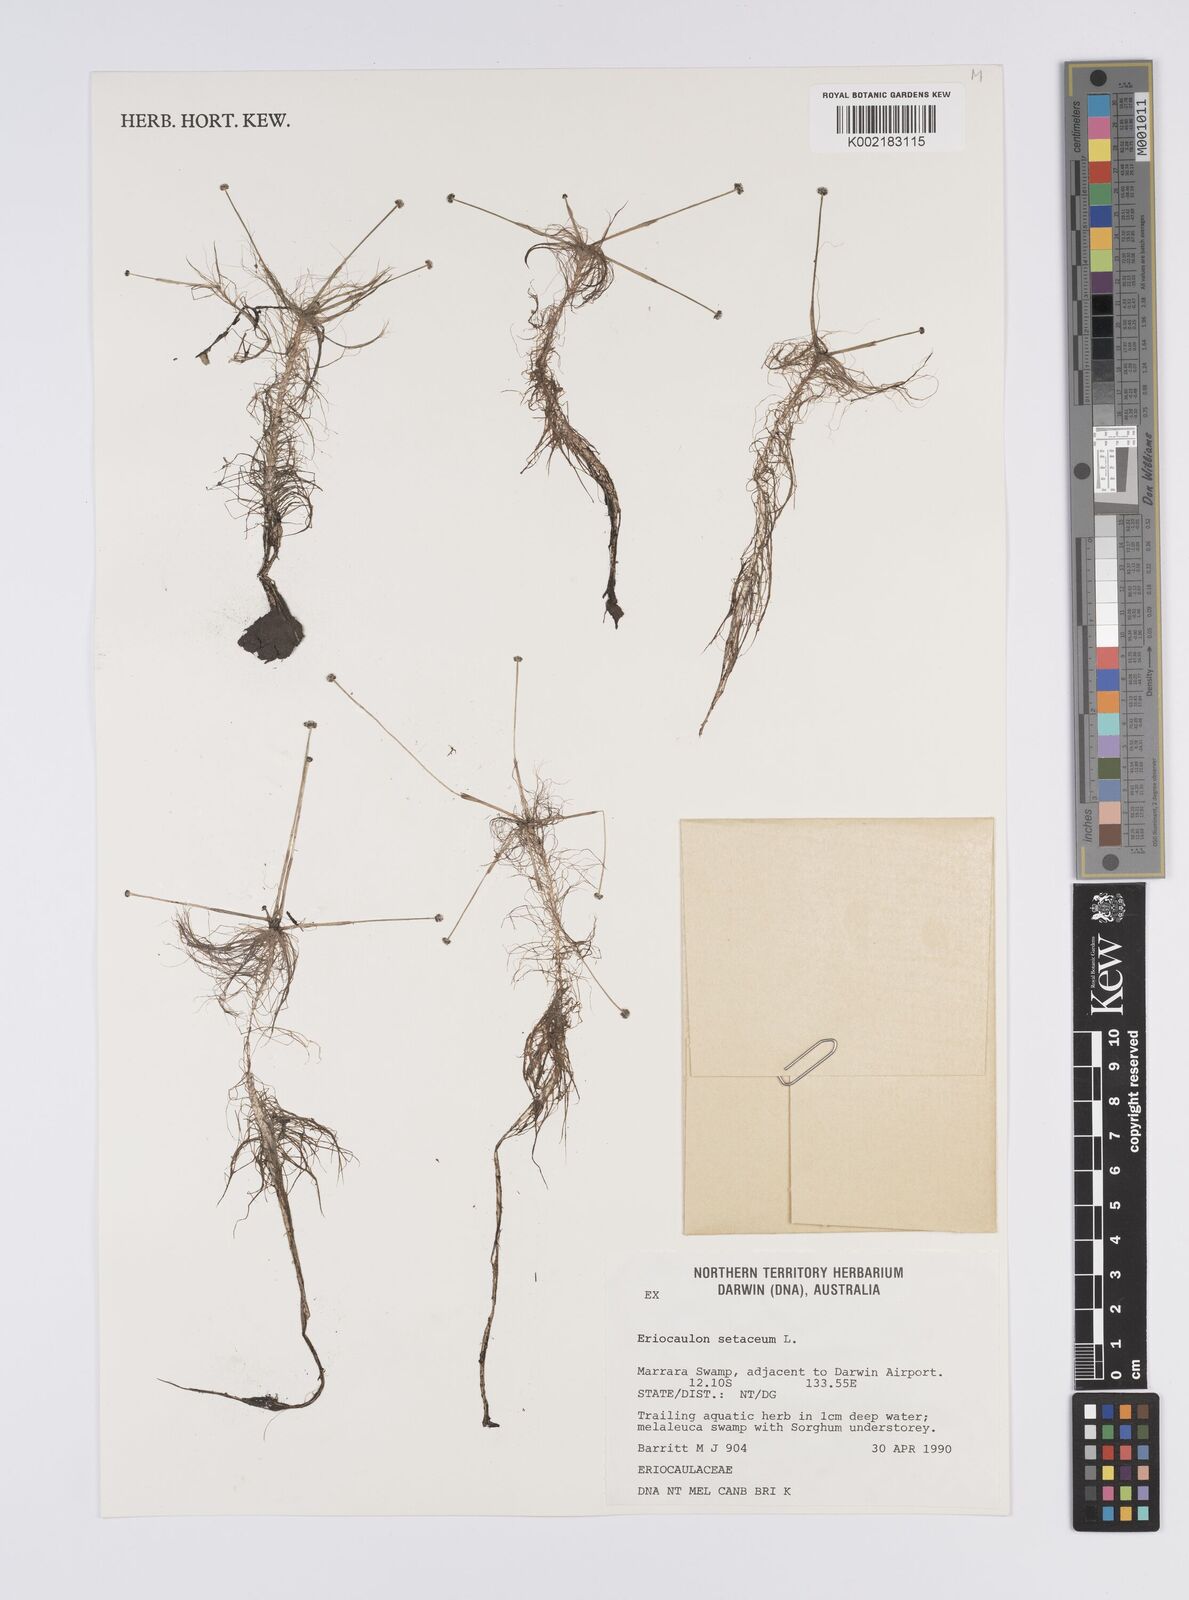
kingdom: Plantae
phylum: Tracheophyta
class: Liliopsida
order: Poales
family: Eriocaulaceae
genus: Eriocaulon
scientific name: Eriocaulon setaceum
